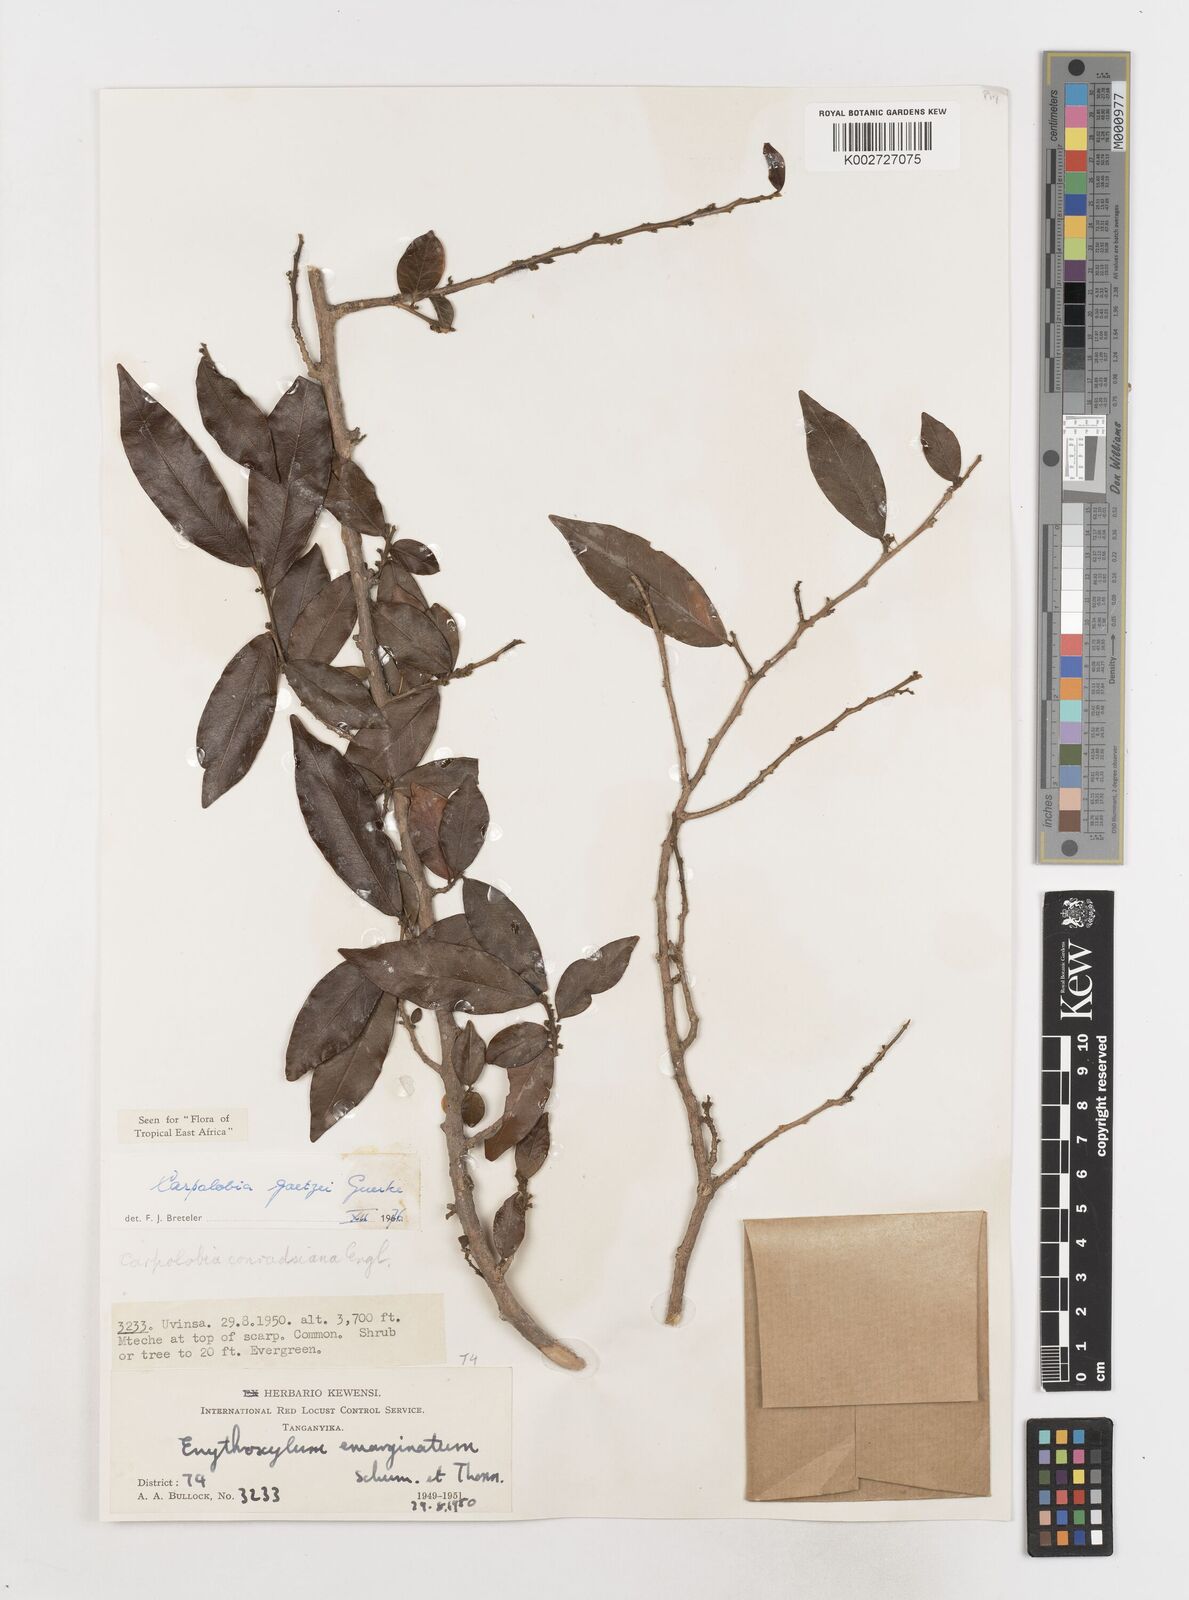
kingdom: Plantae
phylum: Tracheophyta
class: Magnoliopsida
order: Fabales
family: Polygalaceae
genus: Carpolobia
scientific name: Carpolobia goetzei
